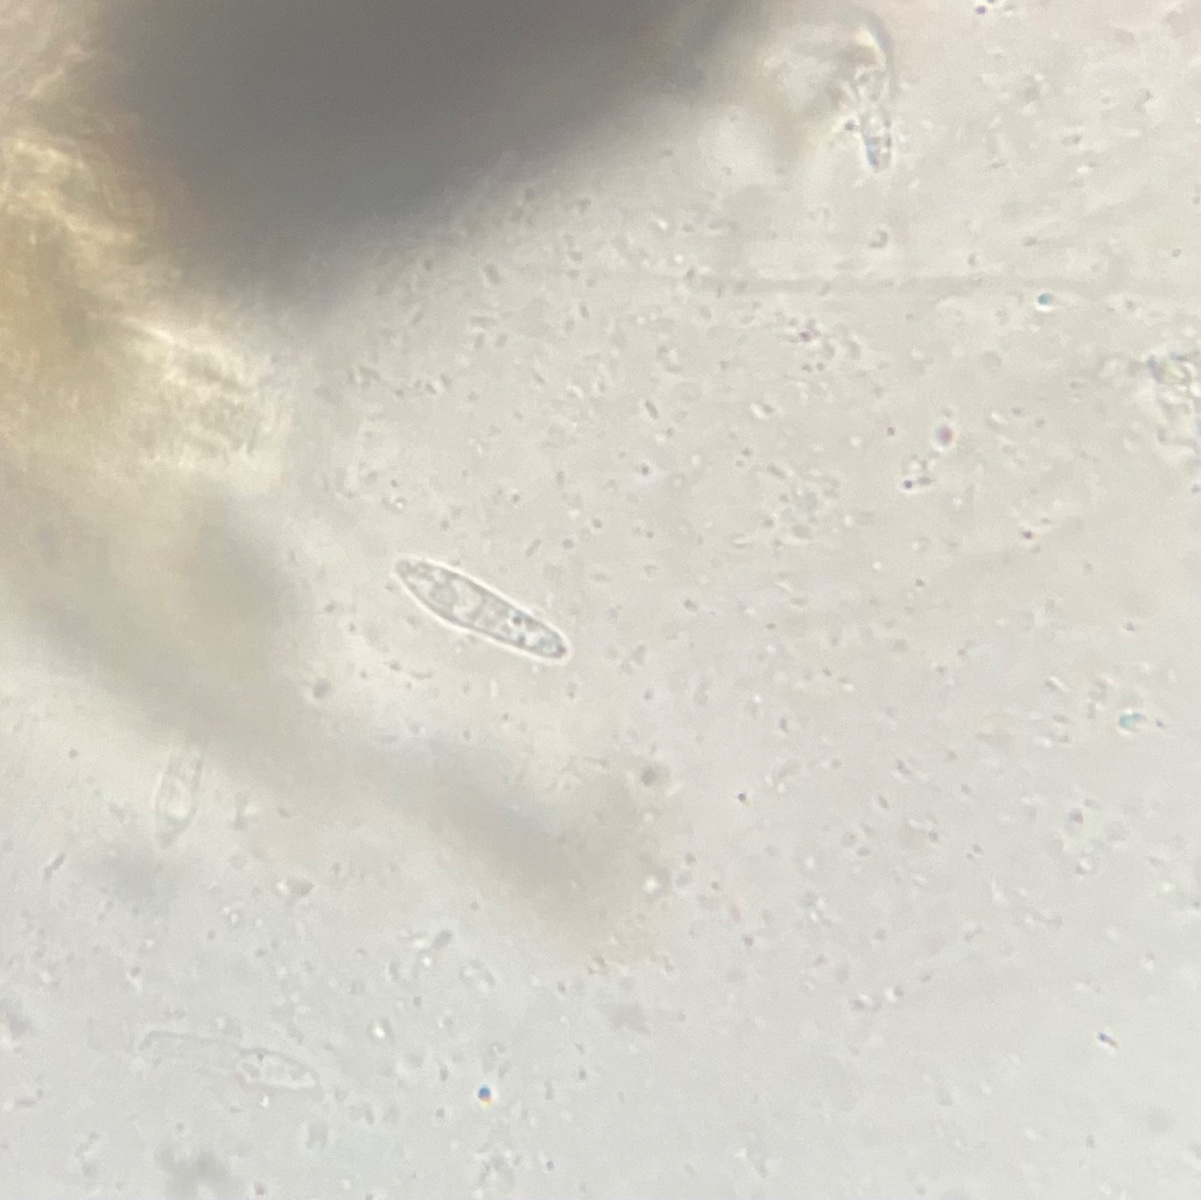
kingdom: Fungi
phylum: Ascomycota
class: Sordariomycetes
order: Hypocreales
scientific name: Hypocreales
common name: kødkerneordenen
